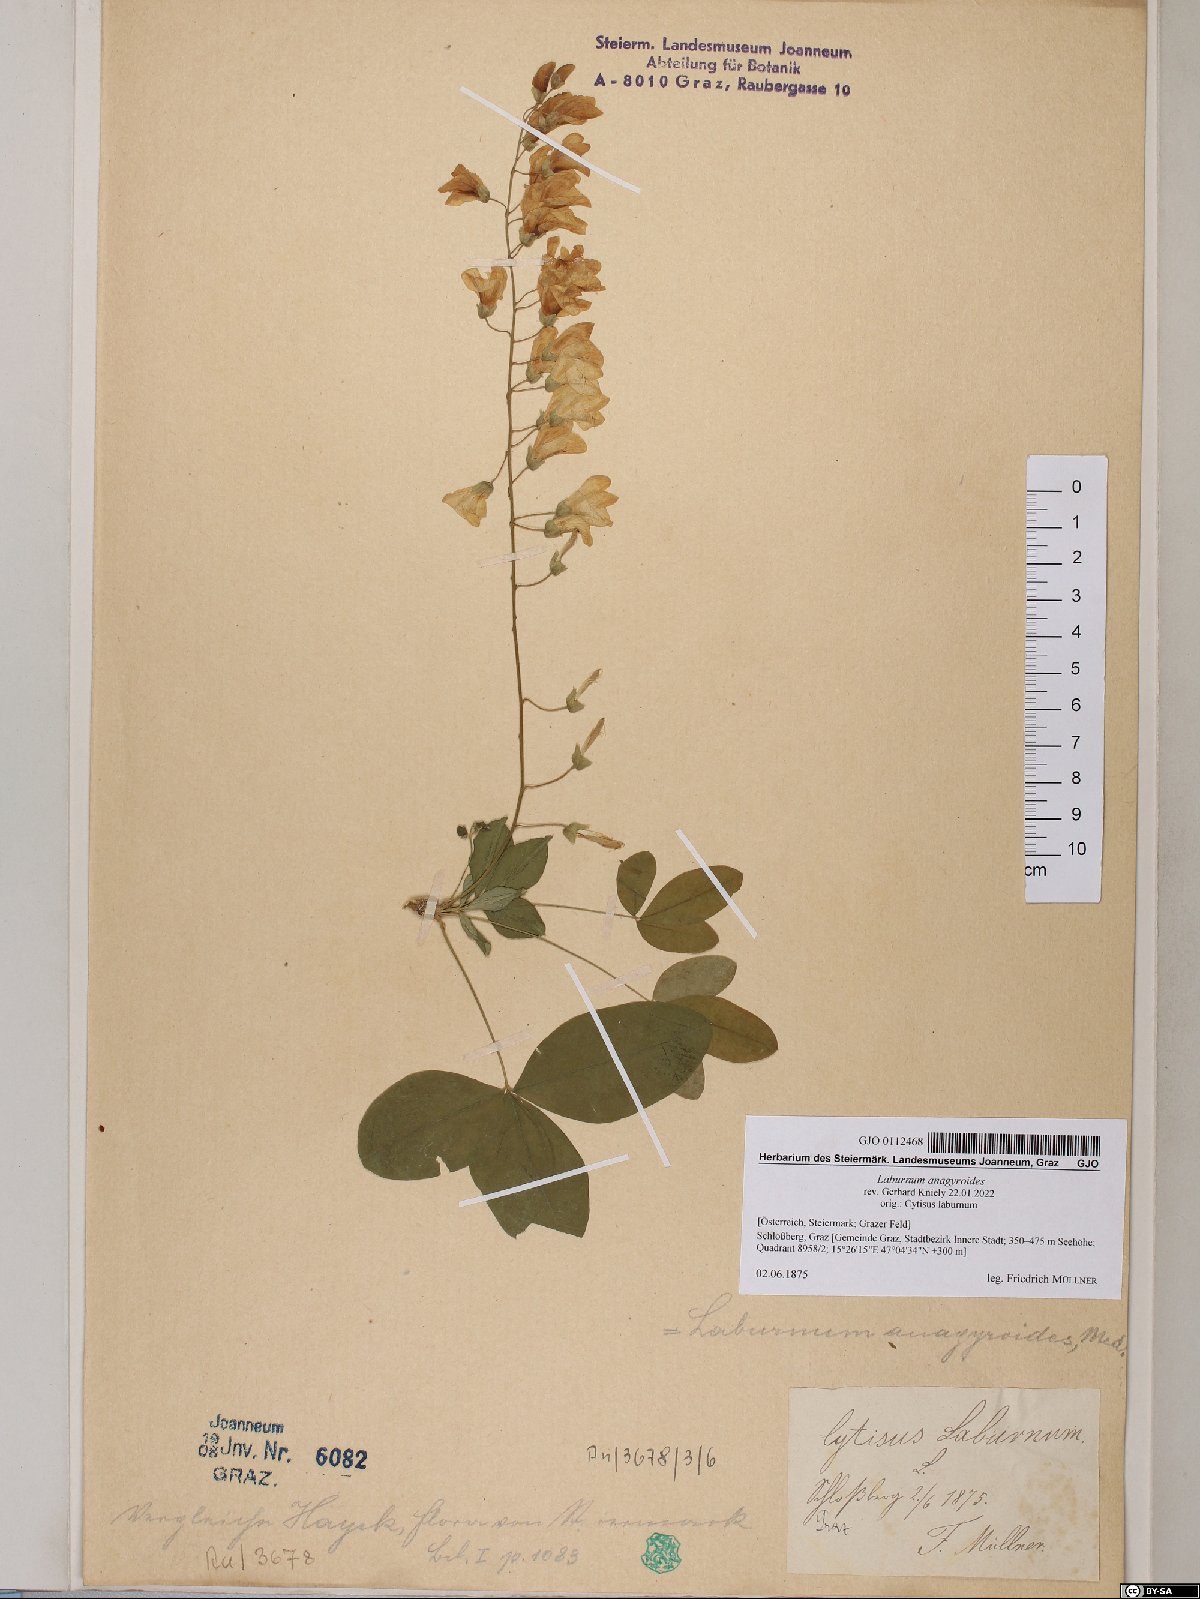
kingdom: Plantae
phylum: Tracheophyta
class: Magnoliopsida
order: Fabales
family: Fabaceae
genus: Laburnum
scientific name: Laburnum anagyroides
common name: Laburnum
